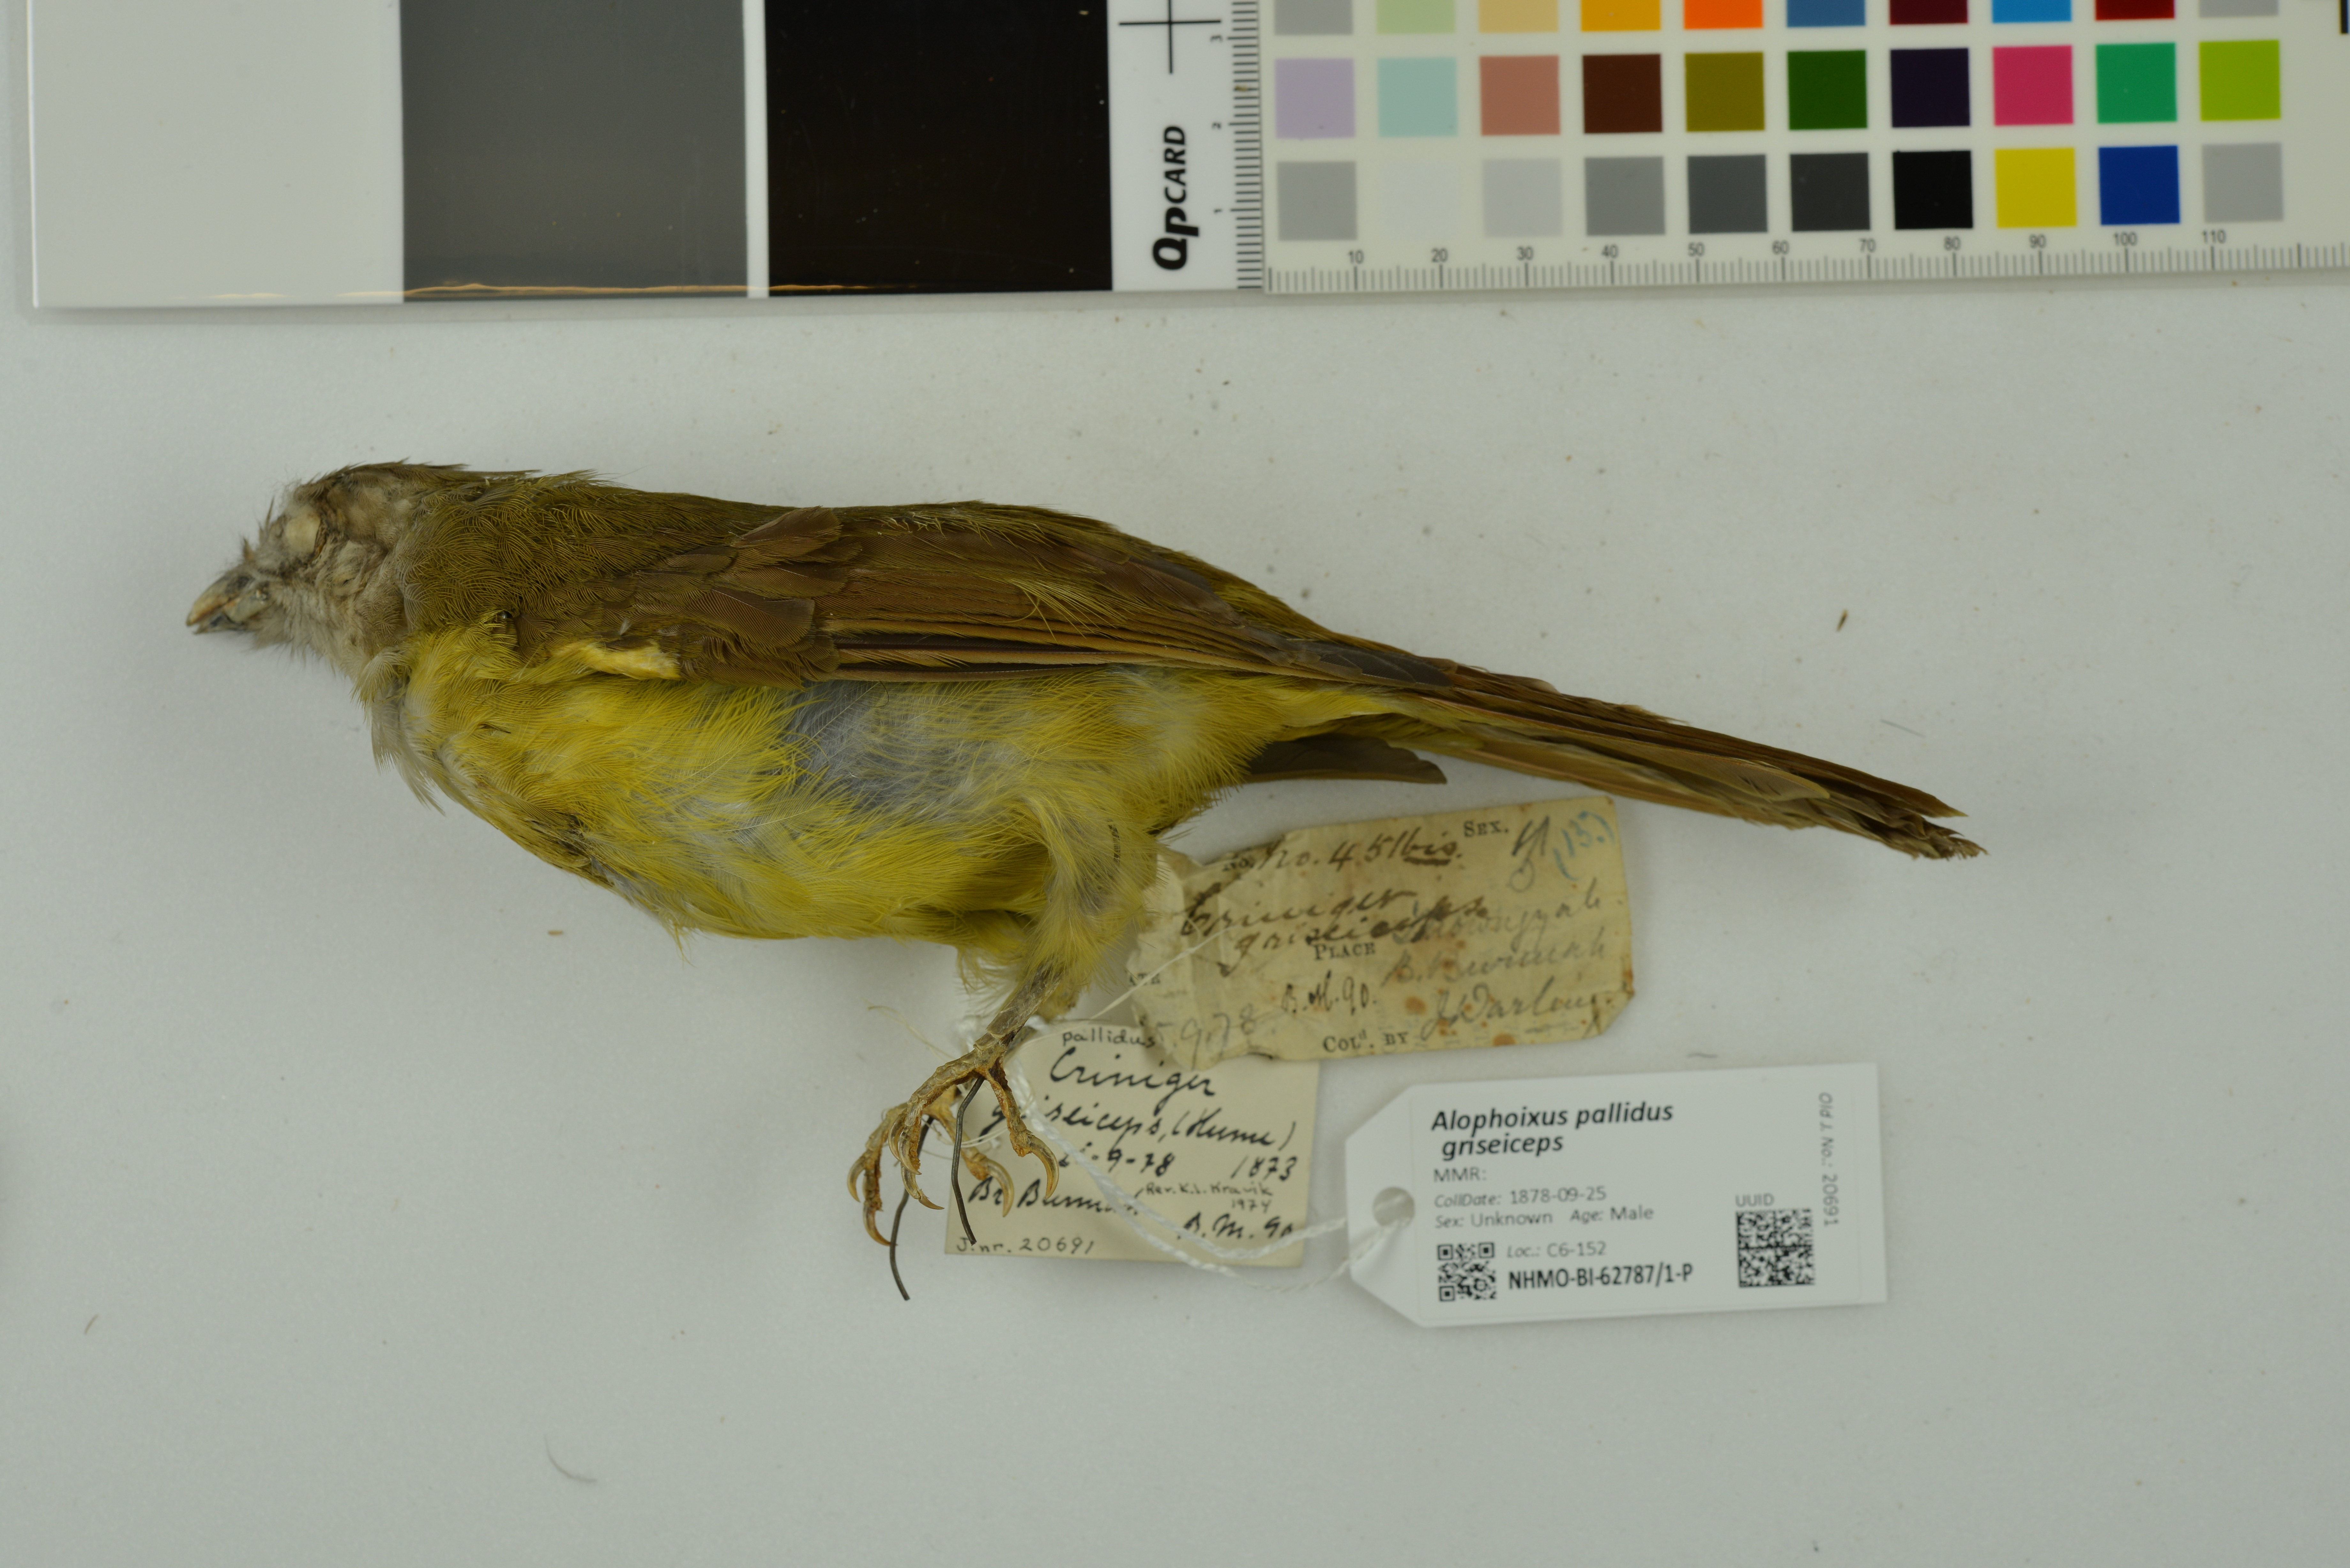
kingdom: Animalia
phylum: Chordata
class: Aves
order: Passeriformes
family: Pycnonotidae
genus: Alophoixus
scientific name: Alophoixus pallidus
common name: Puff-throated bulbul
